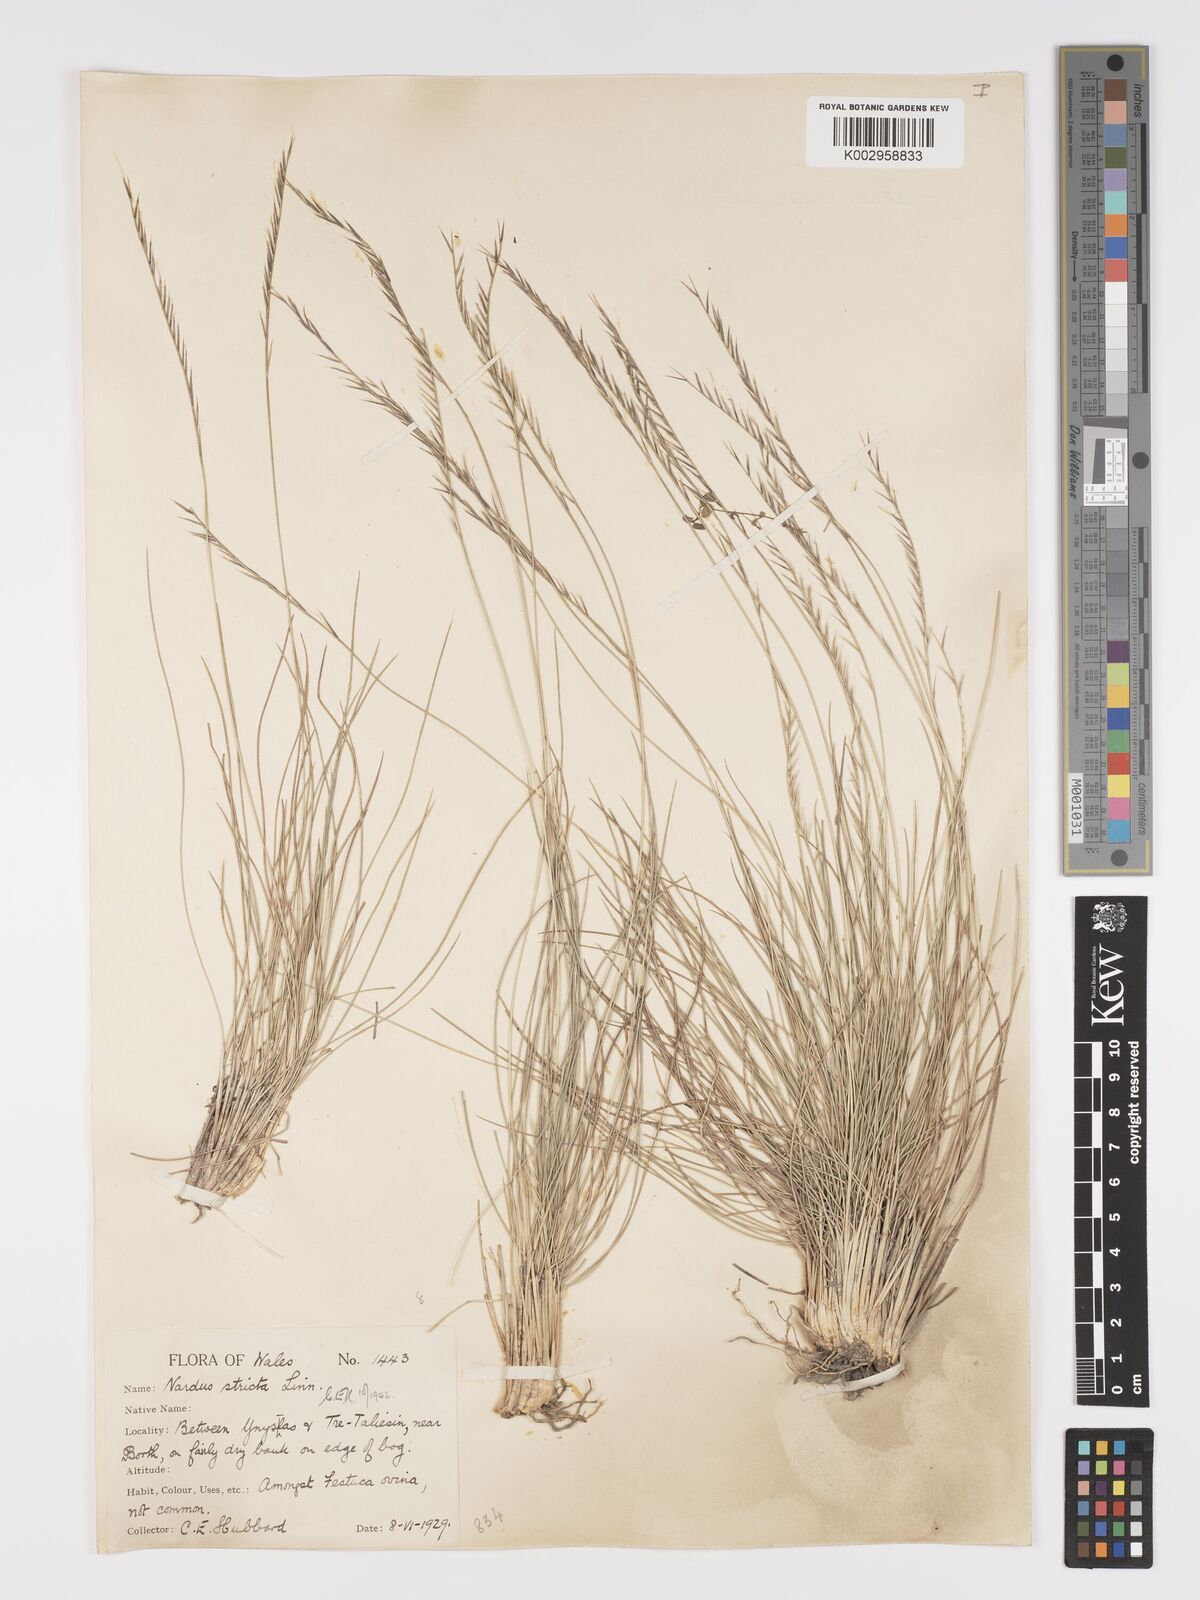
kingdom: Plantae
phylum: Tracheophyta
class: Liliopsida
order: Poales
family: Poaceae
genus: Nardus
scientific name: Nardus stricta
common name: Mat-grass
